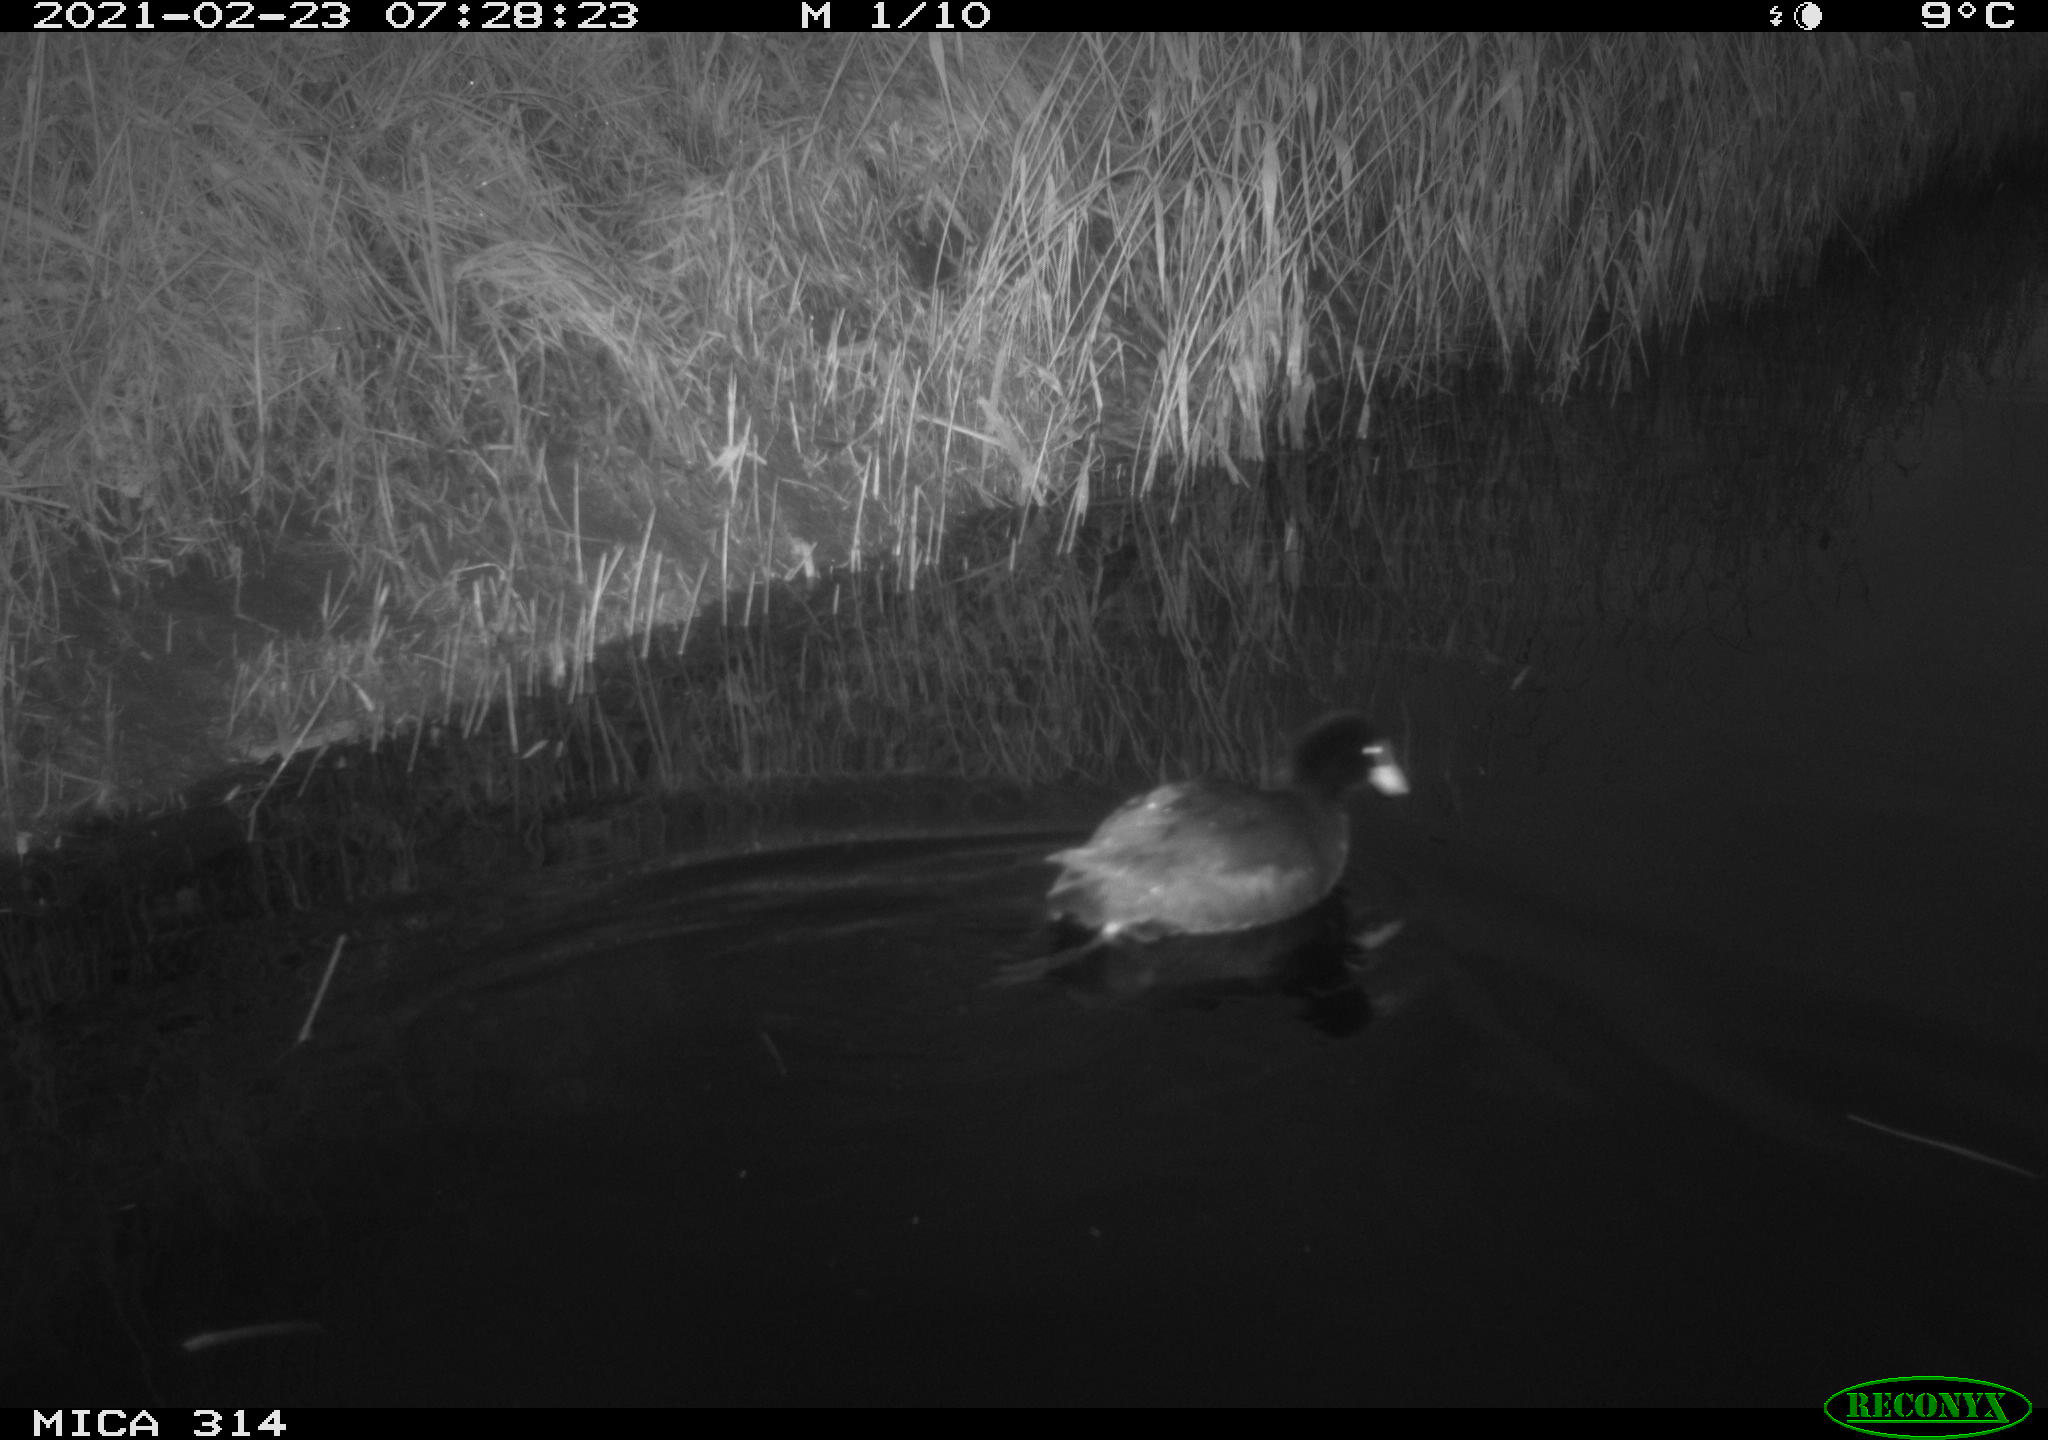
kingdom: Animalia
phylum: Chordata
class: Aves
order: Gruiformes
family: Rallidae
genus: Fulica
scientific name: Fulica atra
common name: Eurasian coot
